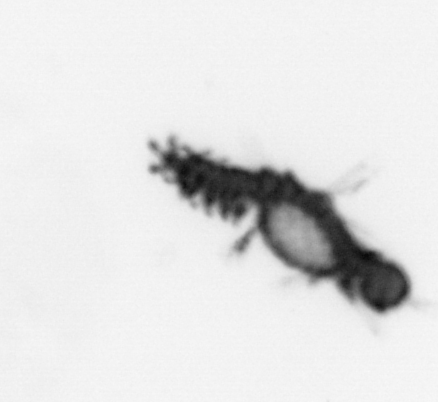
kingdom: Animalia
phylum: Annelida
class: Polychaeta
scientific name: Polychaeta
